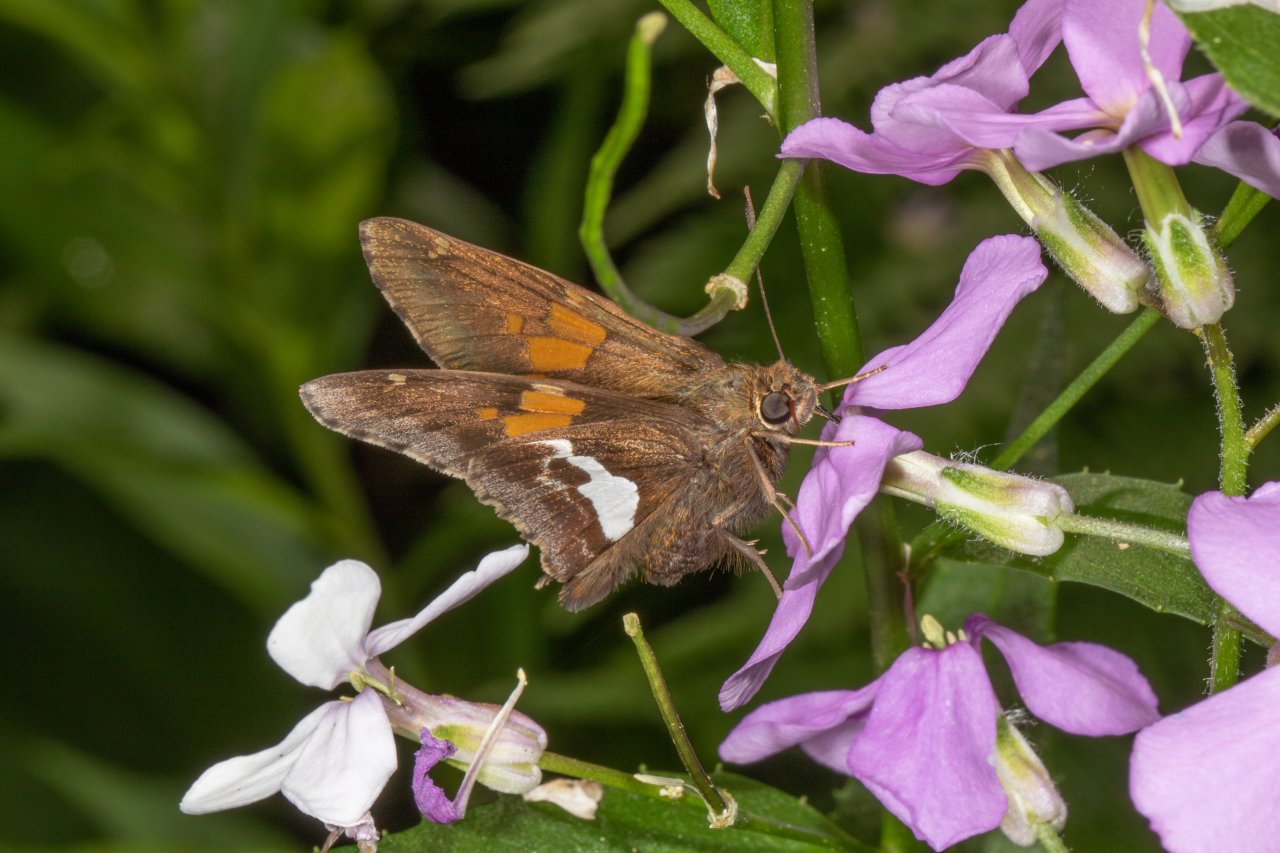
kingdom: Animalia
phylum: Arthropoda
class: Insecta
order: Lepidoptera
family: Hesperiidae
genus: Epargyreus
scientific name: Epargyreus clarus
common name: Silver-spotted Skipper
